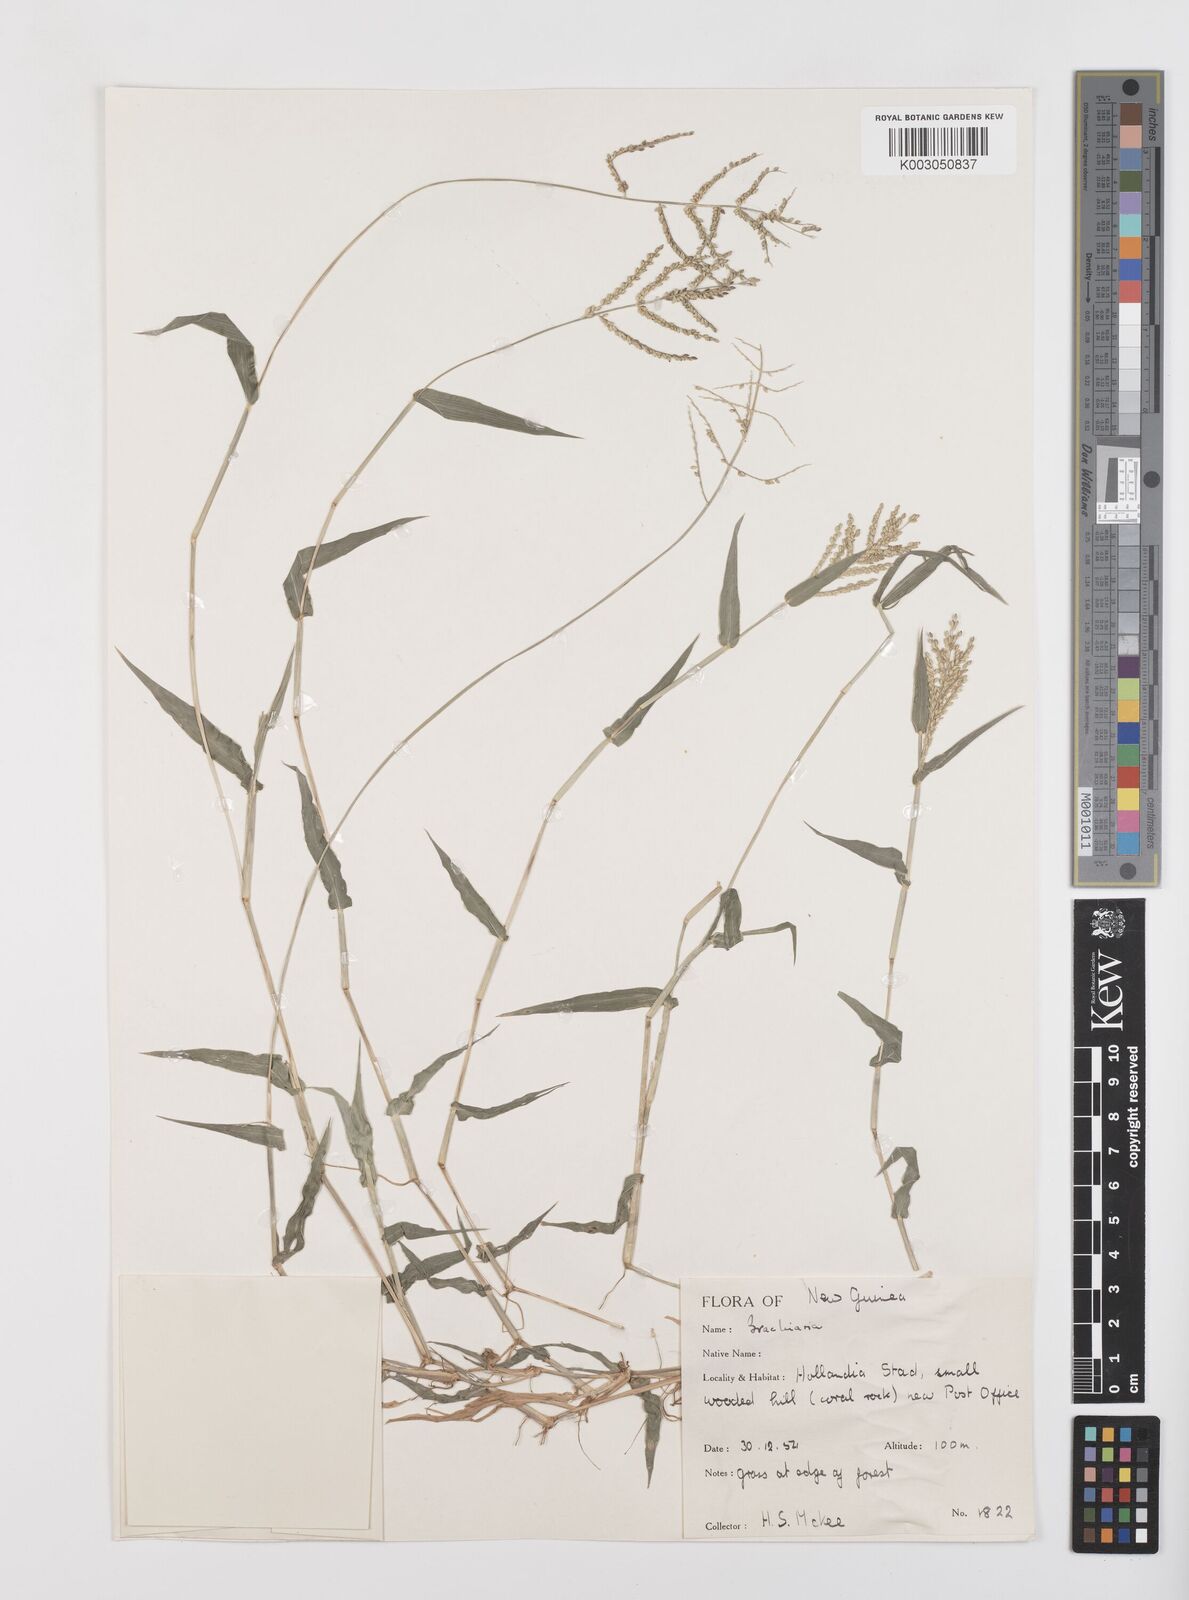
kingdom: Plantae
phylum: Tracheophyta
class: Liliopsida
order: Poales
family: Poaceae
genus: Urochloa
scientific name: Urochloa reptans
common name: Sprawling signalgrass
